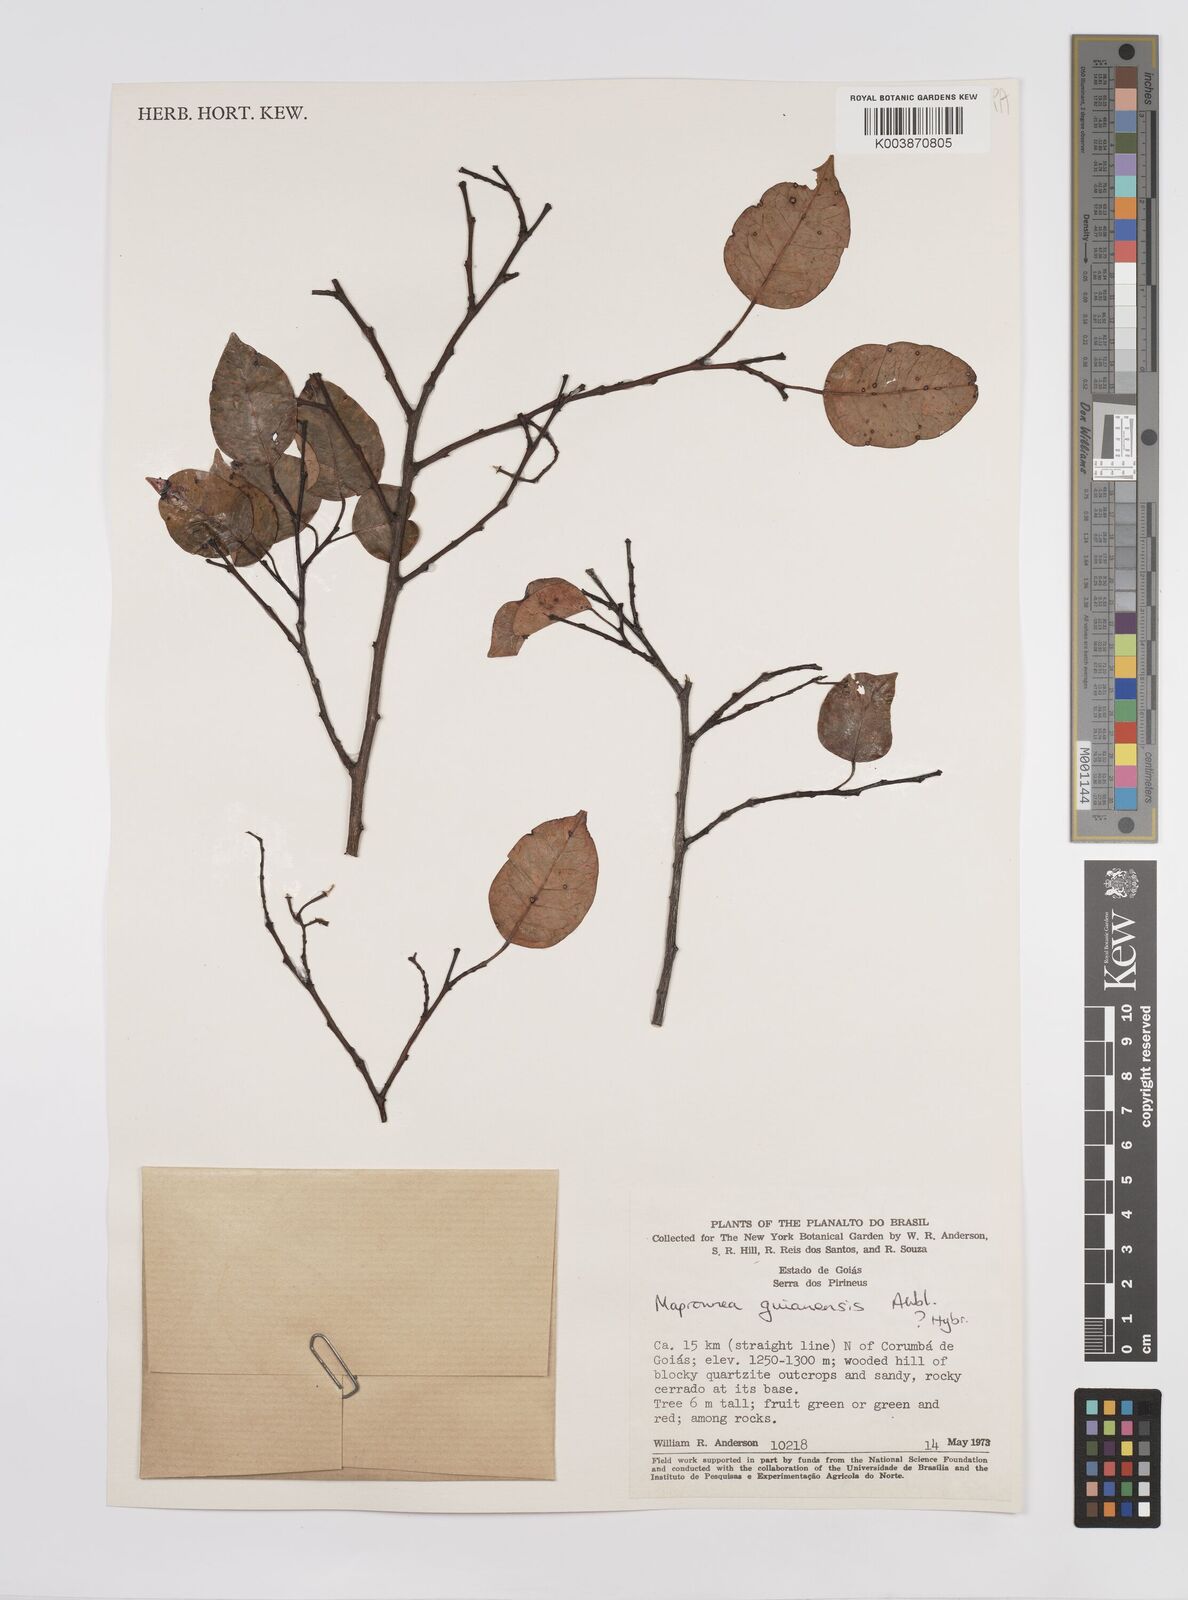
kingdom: Plantae
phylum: Tracheophyta
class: Magnoliopsida
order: Malpighiales
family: Euphorbiaceae
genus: Maprounea
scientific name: Maprounea guianensis
